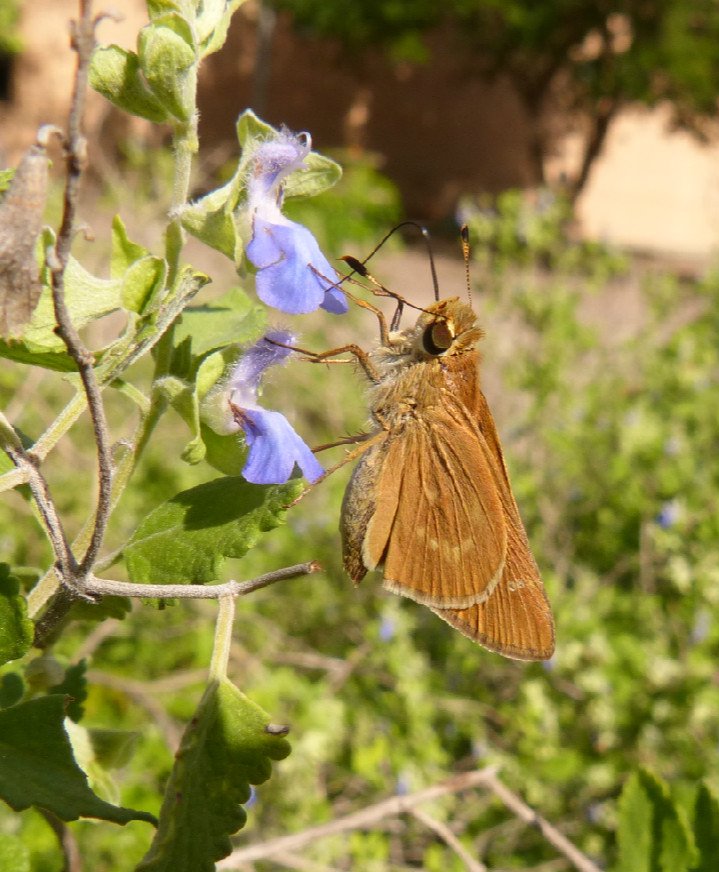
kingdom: Animalia
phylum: Arthropoda
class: Insecta
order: Lepidoptera
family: Hesperiidae
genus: Mellana
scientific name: Mellana eulogius
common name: Common Mellana
